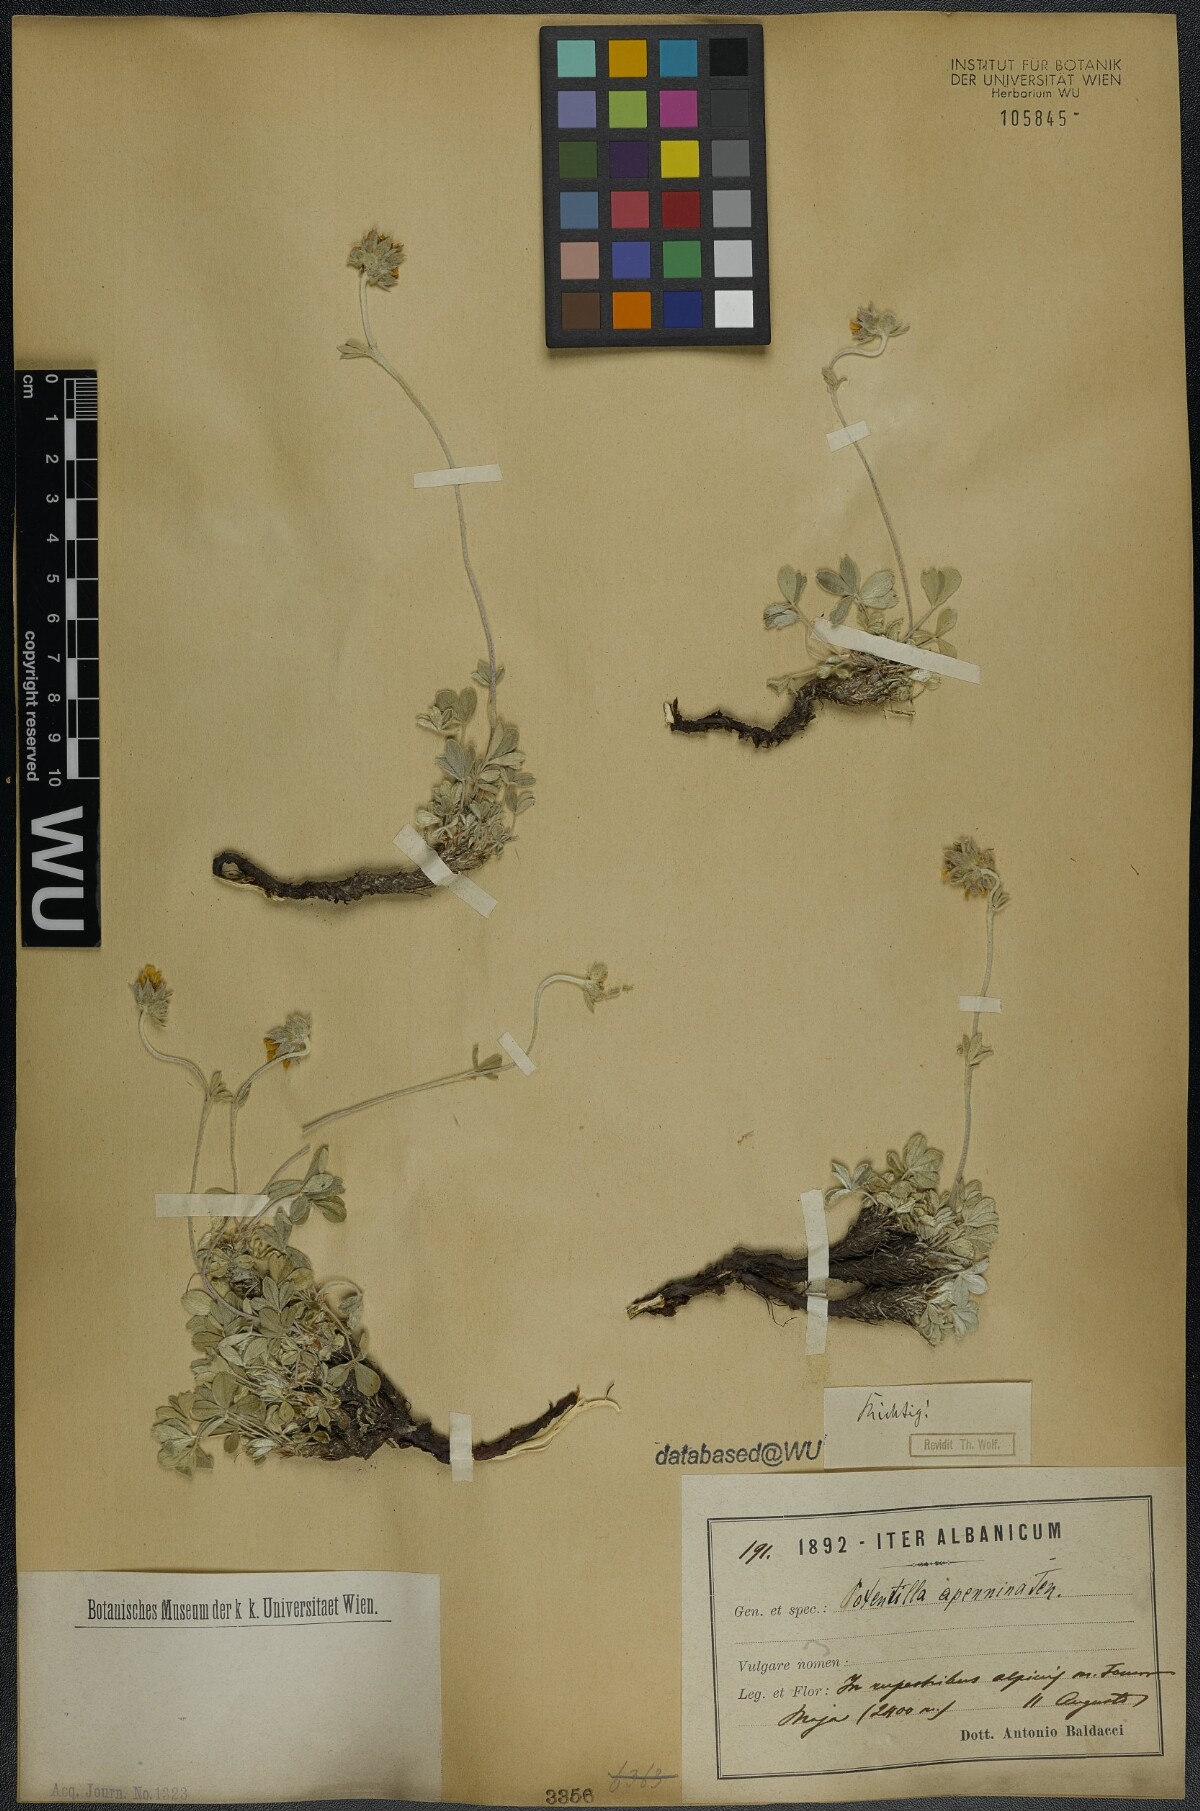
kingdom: Plantae
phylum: Tracheophyta
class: Magnoliopsida
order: Rosales
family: Rosaceae
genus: Potentilla
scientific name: Potentilla apennina
